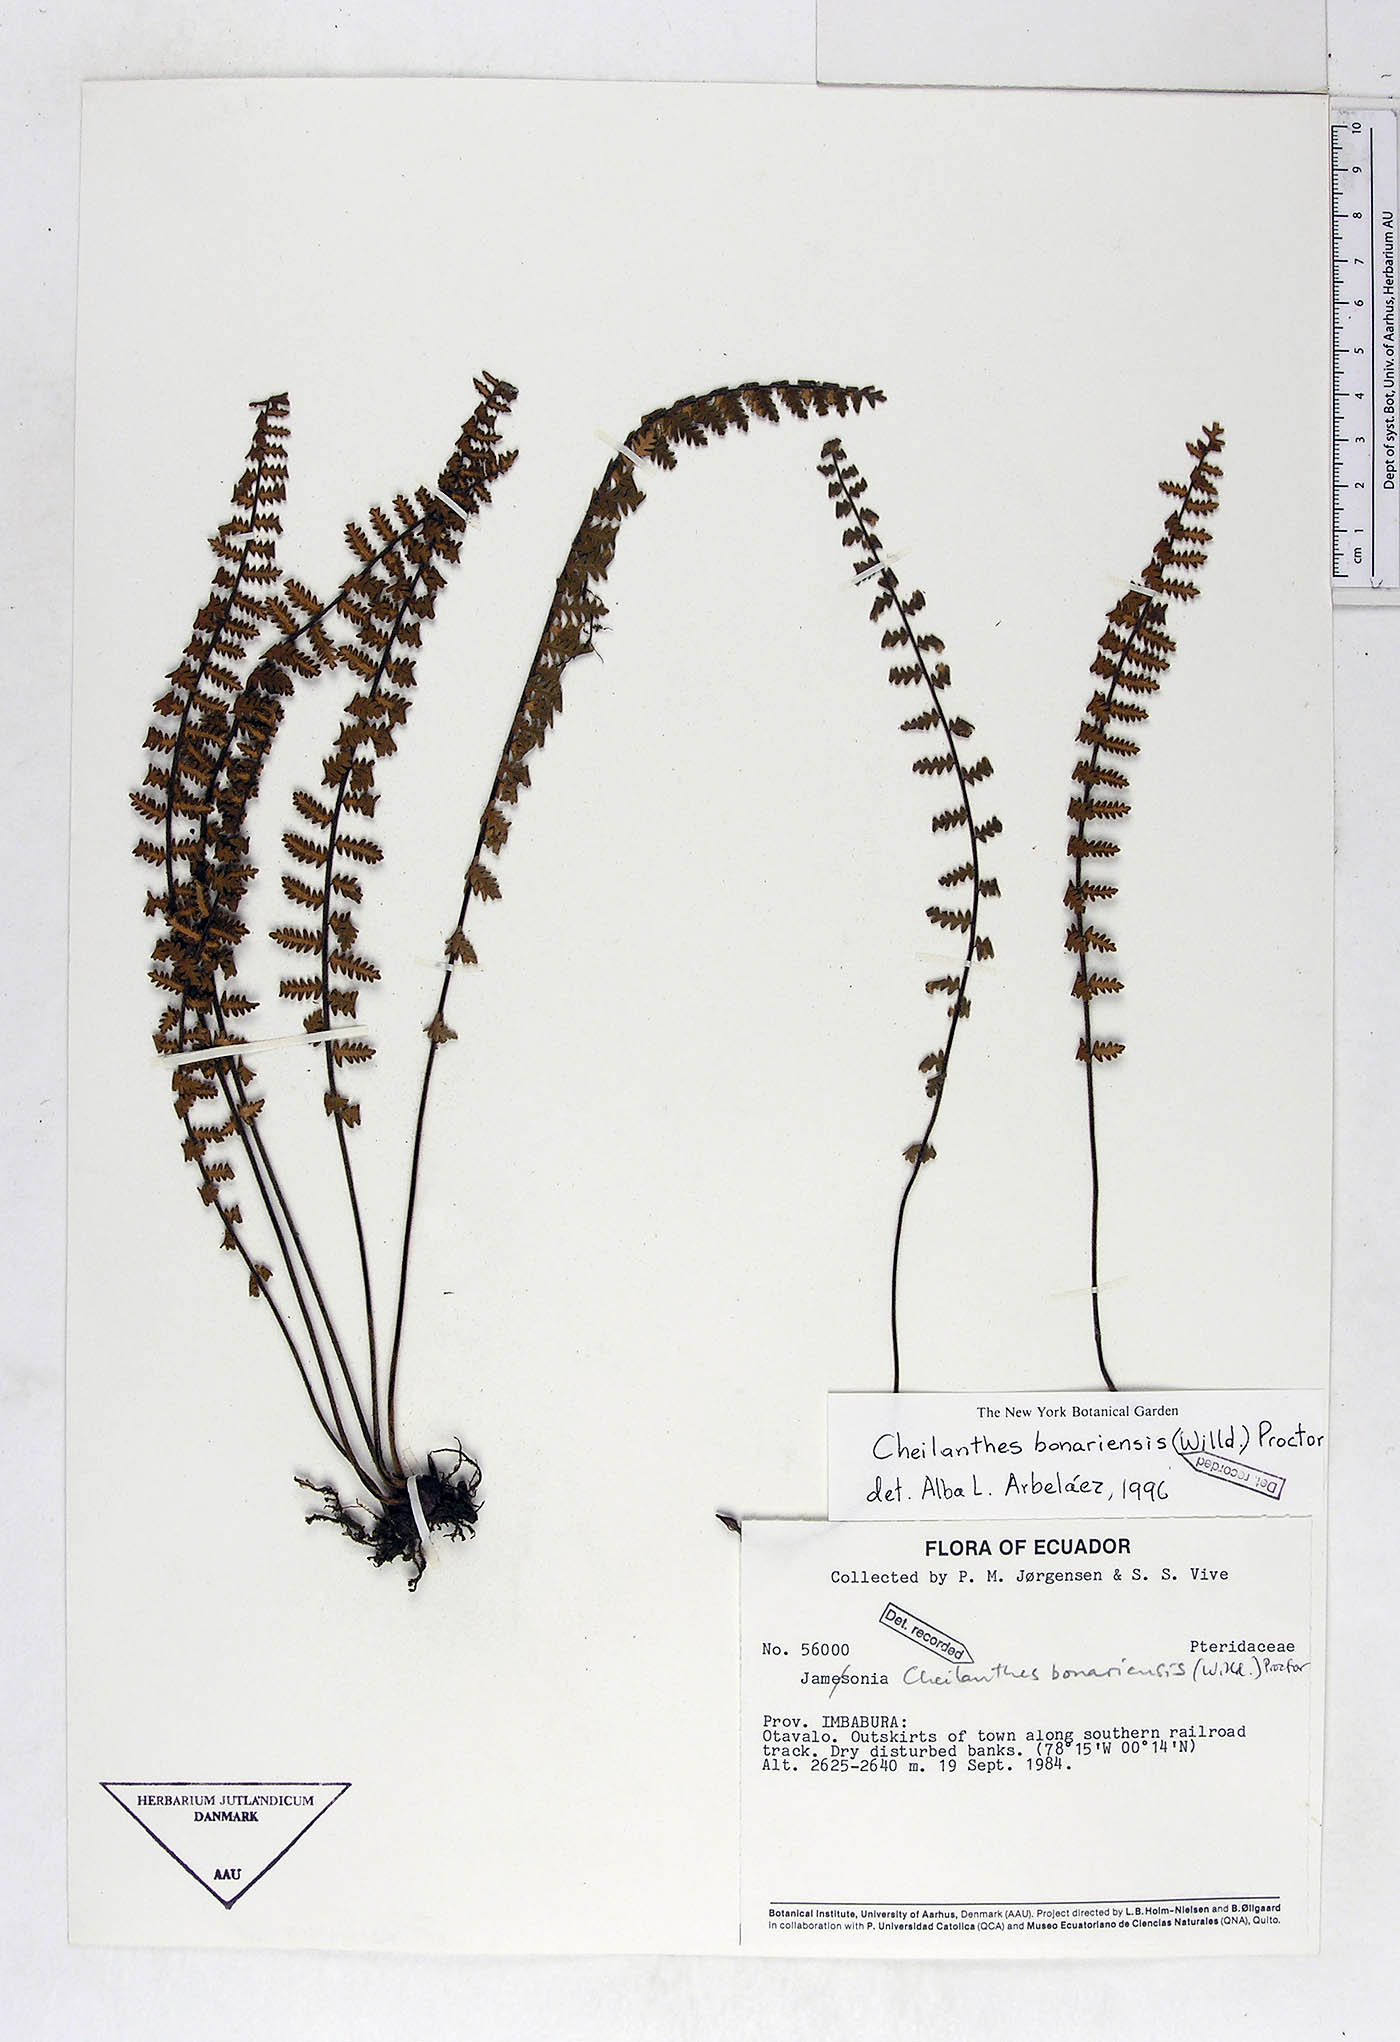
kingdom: Plantae
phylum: Tracheophyta
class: Polypodiopsida
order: Polypodiales
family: Pteridaceae
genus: Myriopteris
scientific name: Myriopteris aurea
